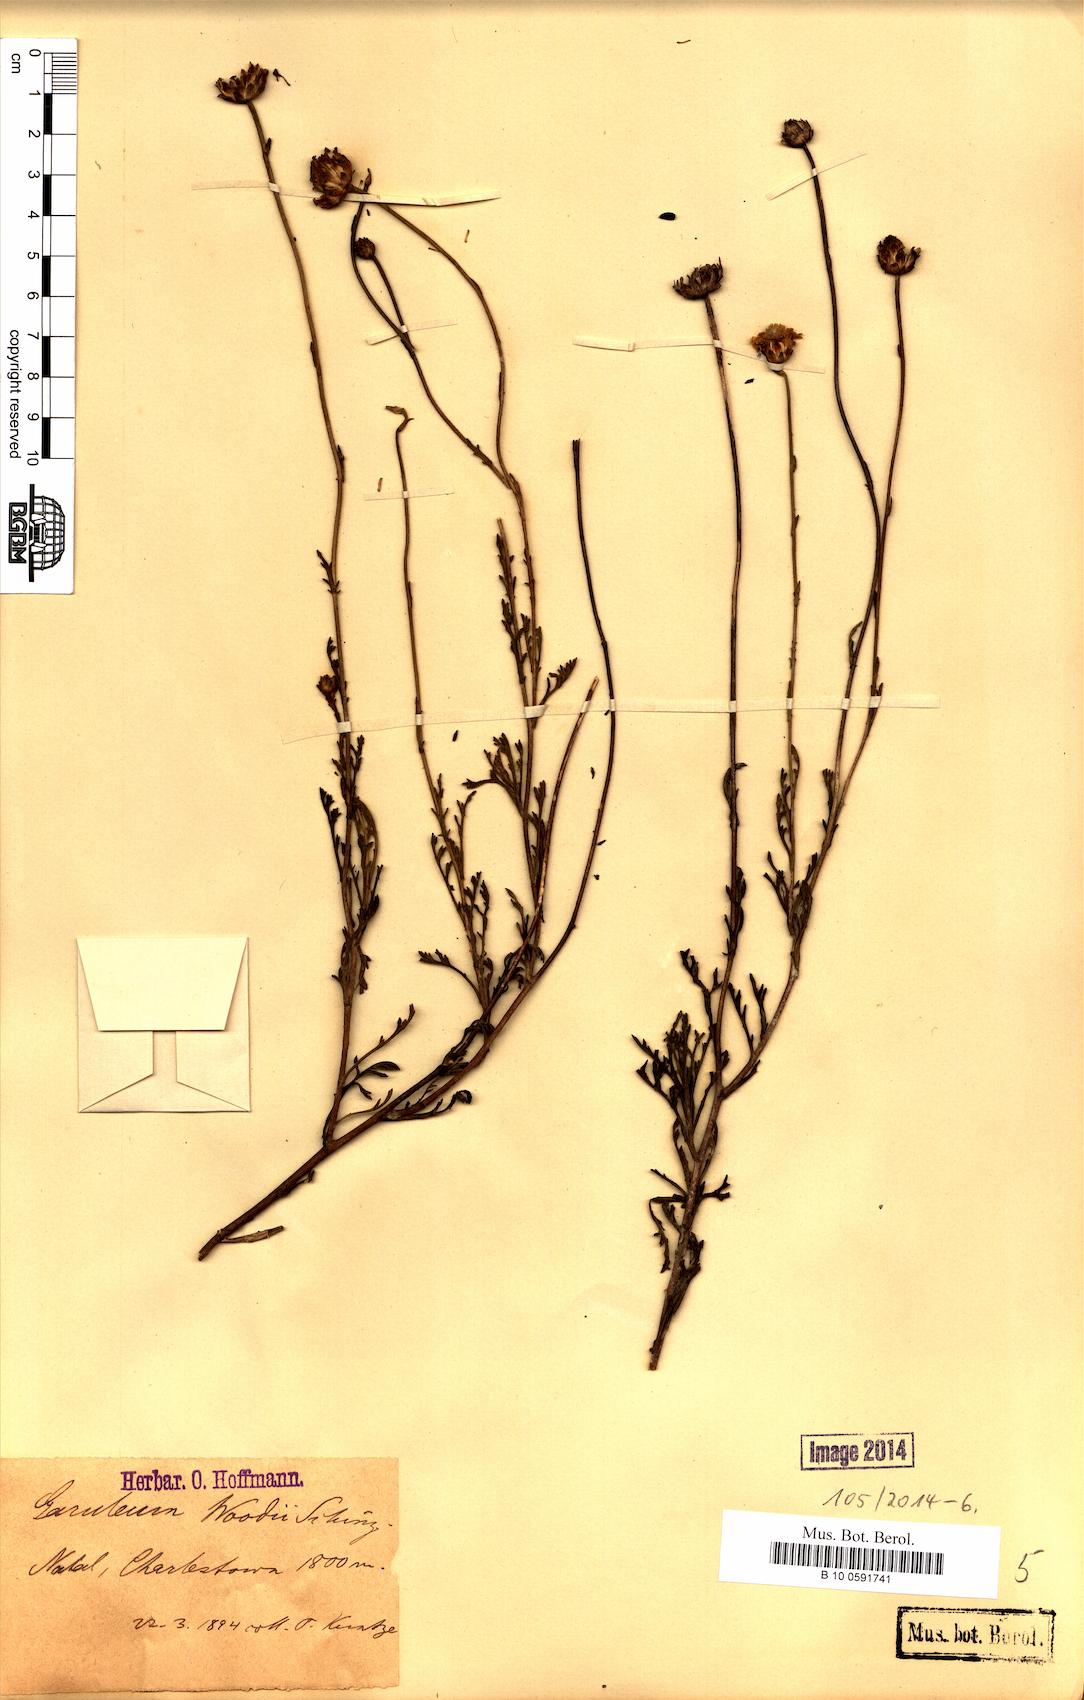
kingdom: Plantae
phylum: Tracheophyta
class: Magnoliopsida
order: Asterales
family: Asteraceae
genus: Garuleum
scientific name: Garuleum woodii
